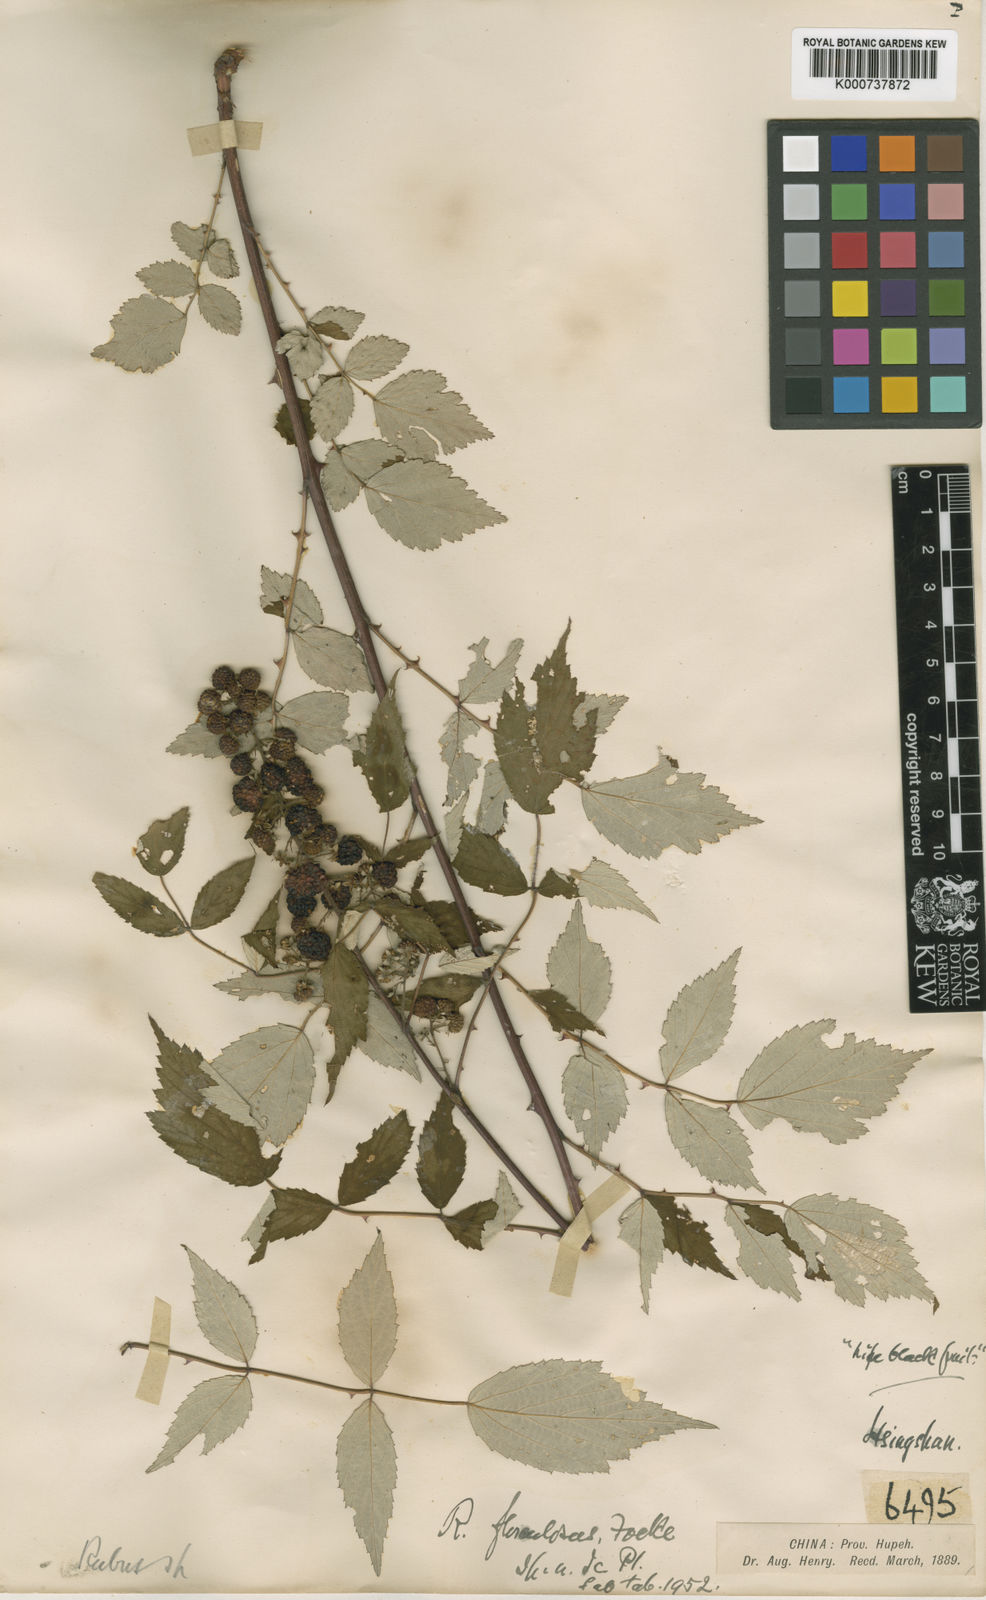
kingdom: Plantae
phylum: Tracheophyta
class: Magnoliopsida
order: Rosales
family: Rosaceae
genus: Rubus
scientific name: Rubus flosculosus
